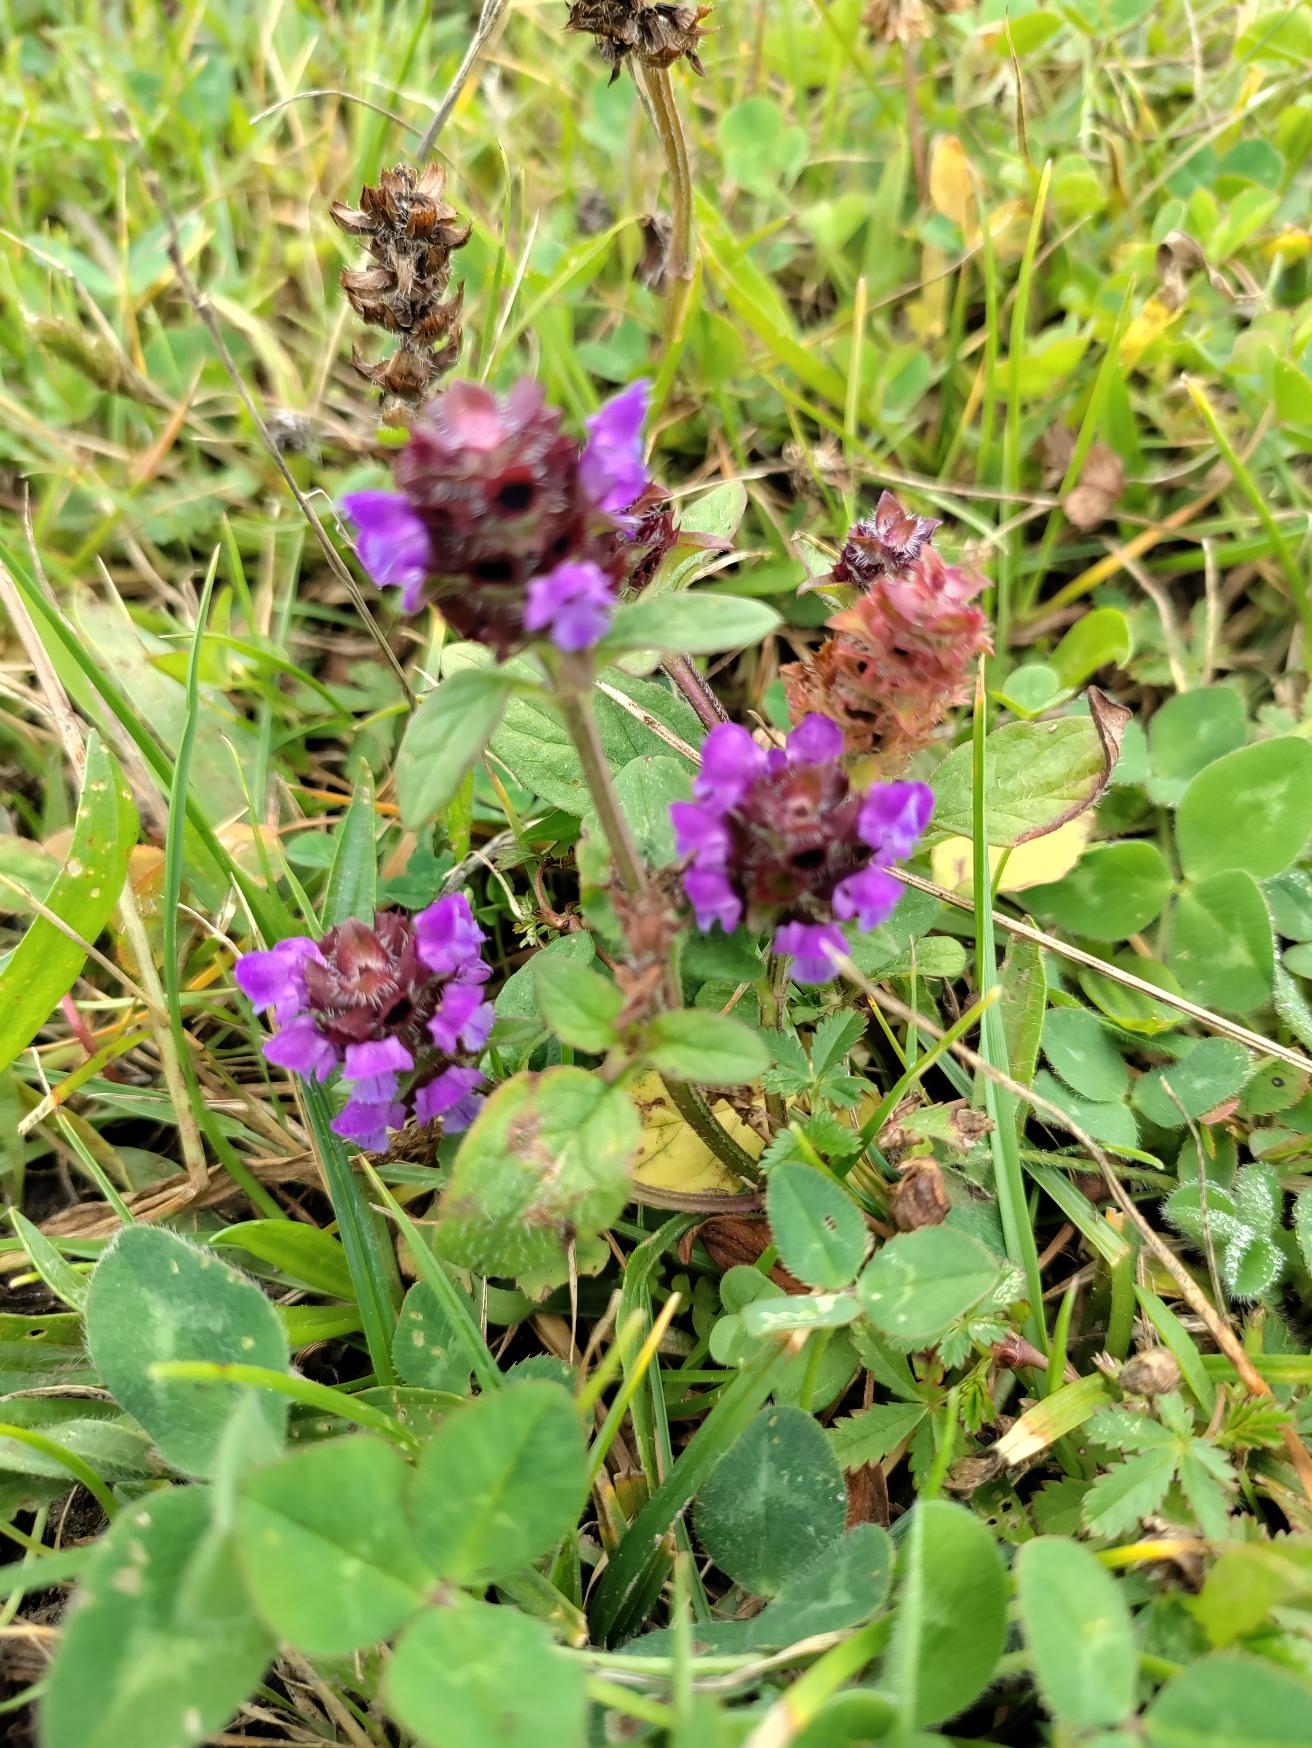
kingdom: Plantae
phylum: Tracheophyta
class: Magnoliopsida
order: Lamiales
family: Lamiaceae
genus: Prunella
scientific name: Prunella vulgaris
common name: Almindelig brunelle
